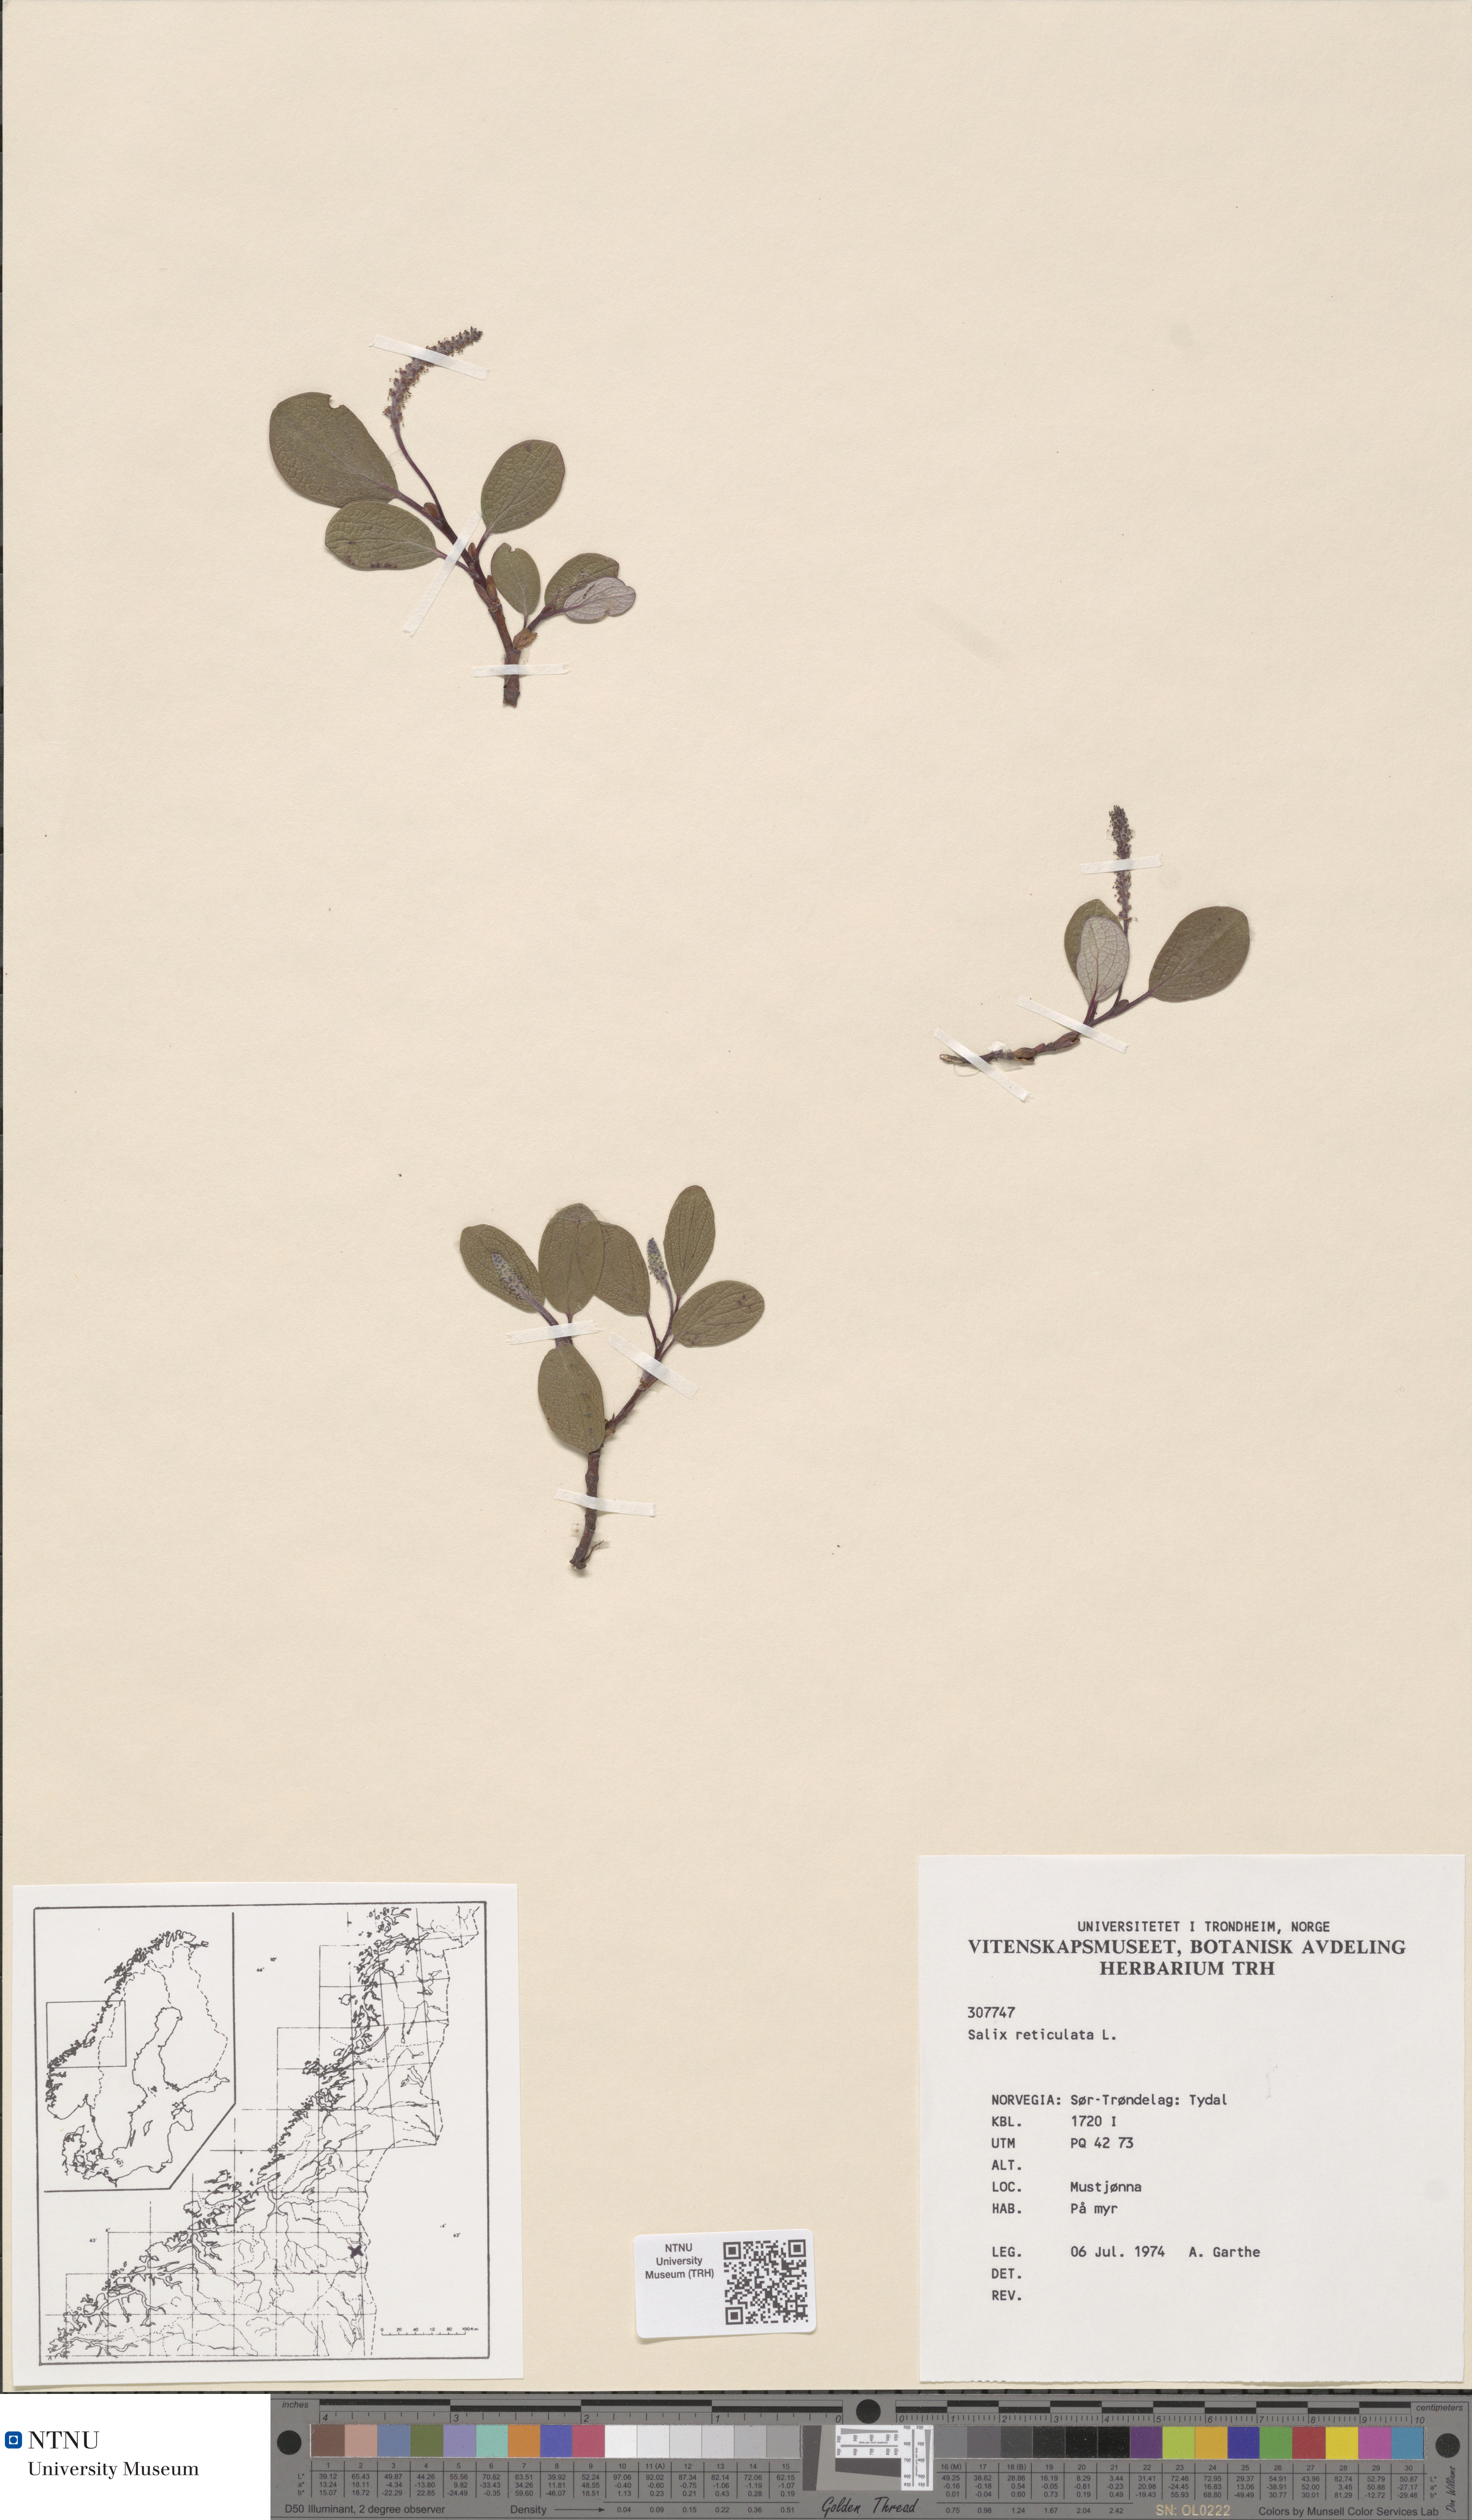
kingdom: Plantae
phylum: Tracheophyta
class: Magnoliopsida
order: Malpighiales
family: Salicaceae
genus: Salix
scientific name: Salix reticulata
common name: Net-leaved willow
